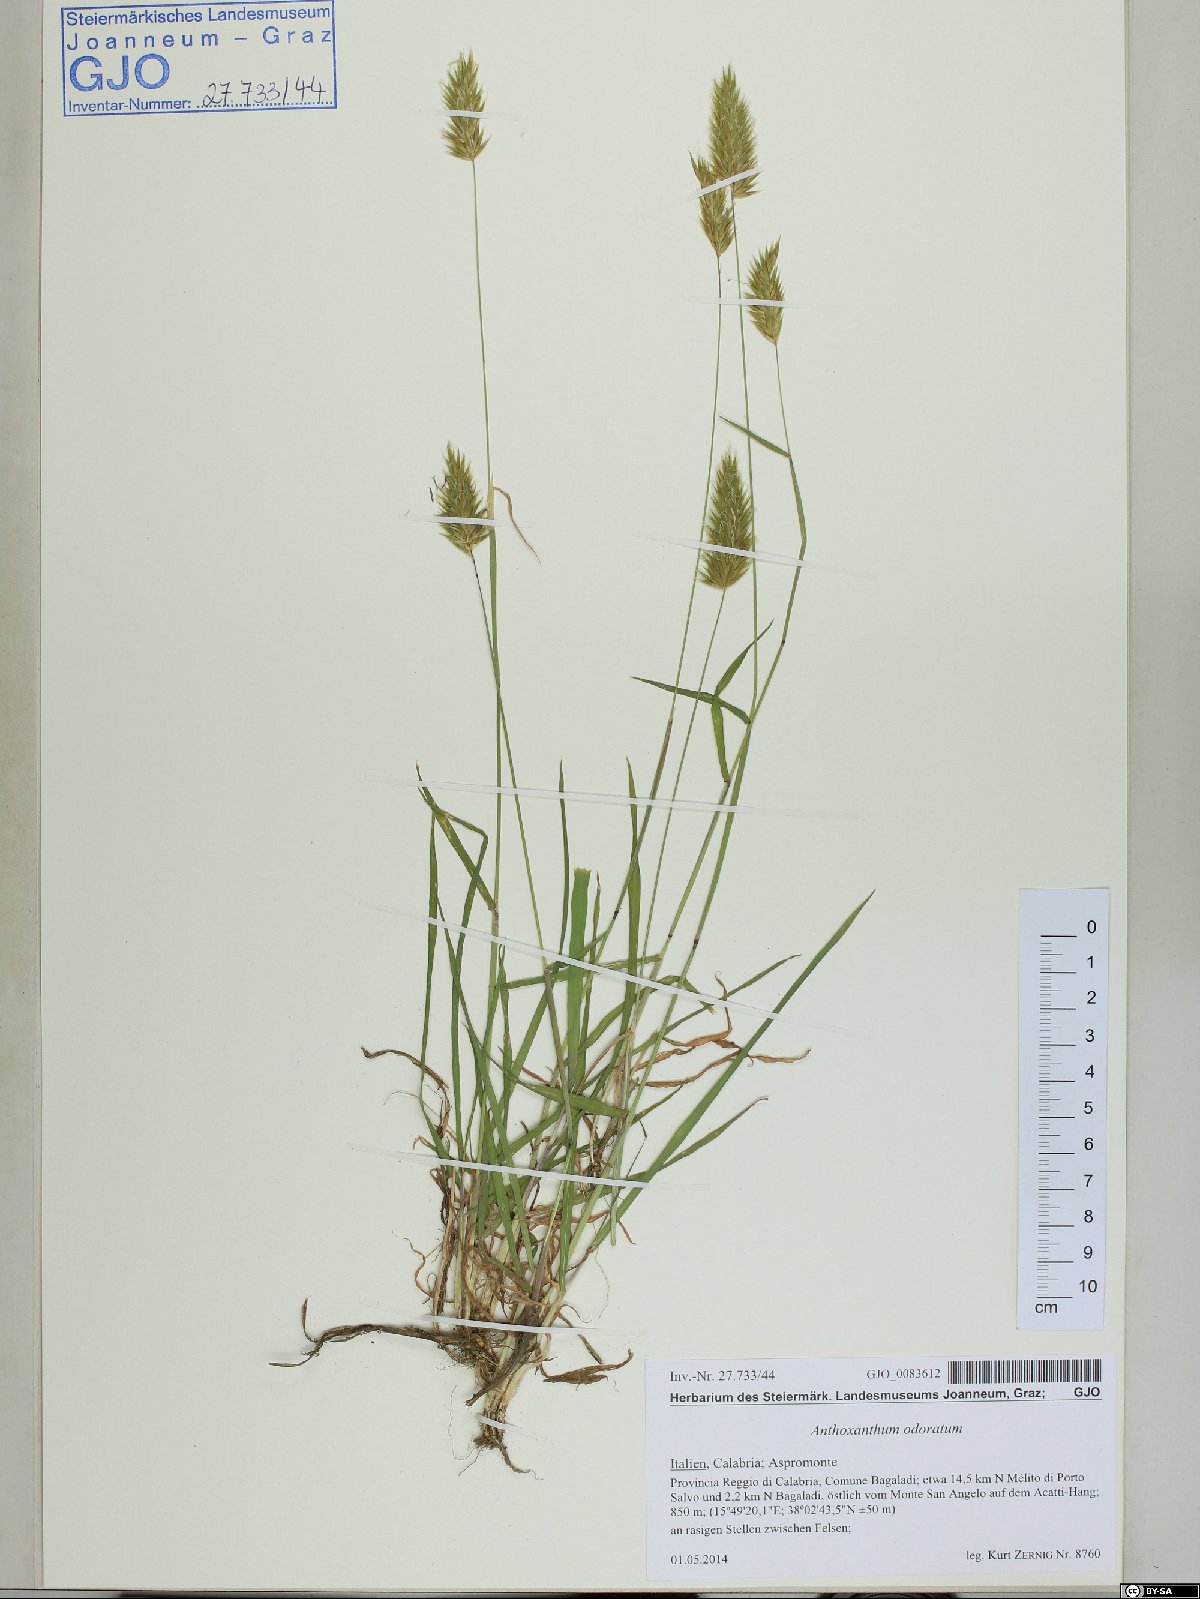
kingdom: Plantae
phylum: Tracheophyta
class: Liliopsida
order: Poales
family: Poaceae
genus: Anthoxanthum
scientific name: Anthoxanthum odoratum
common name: Sweet vernalgrass
